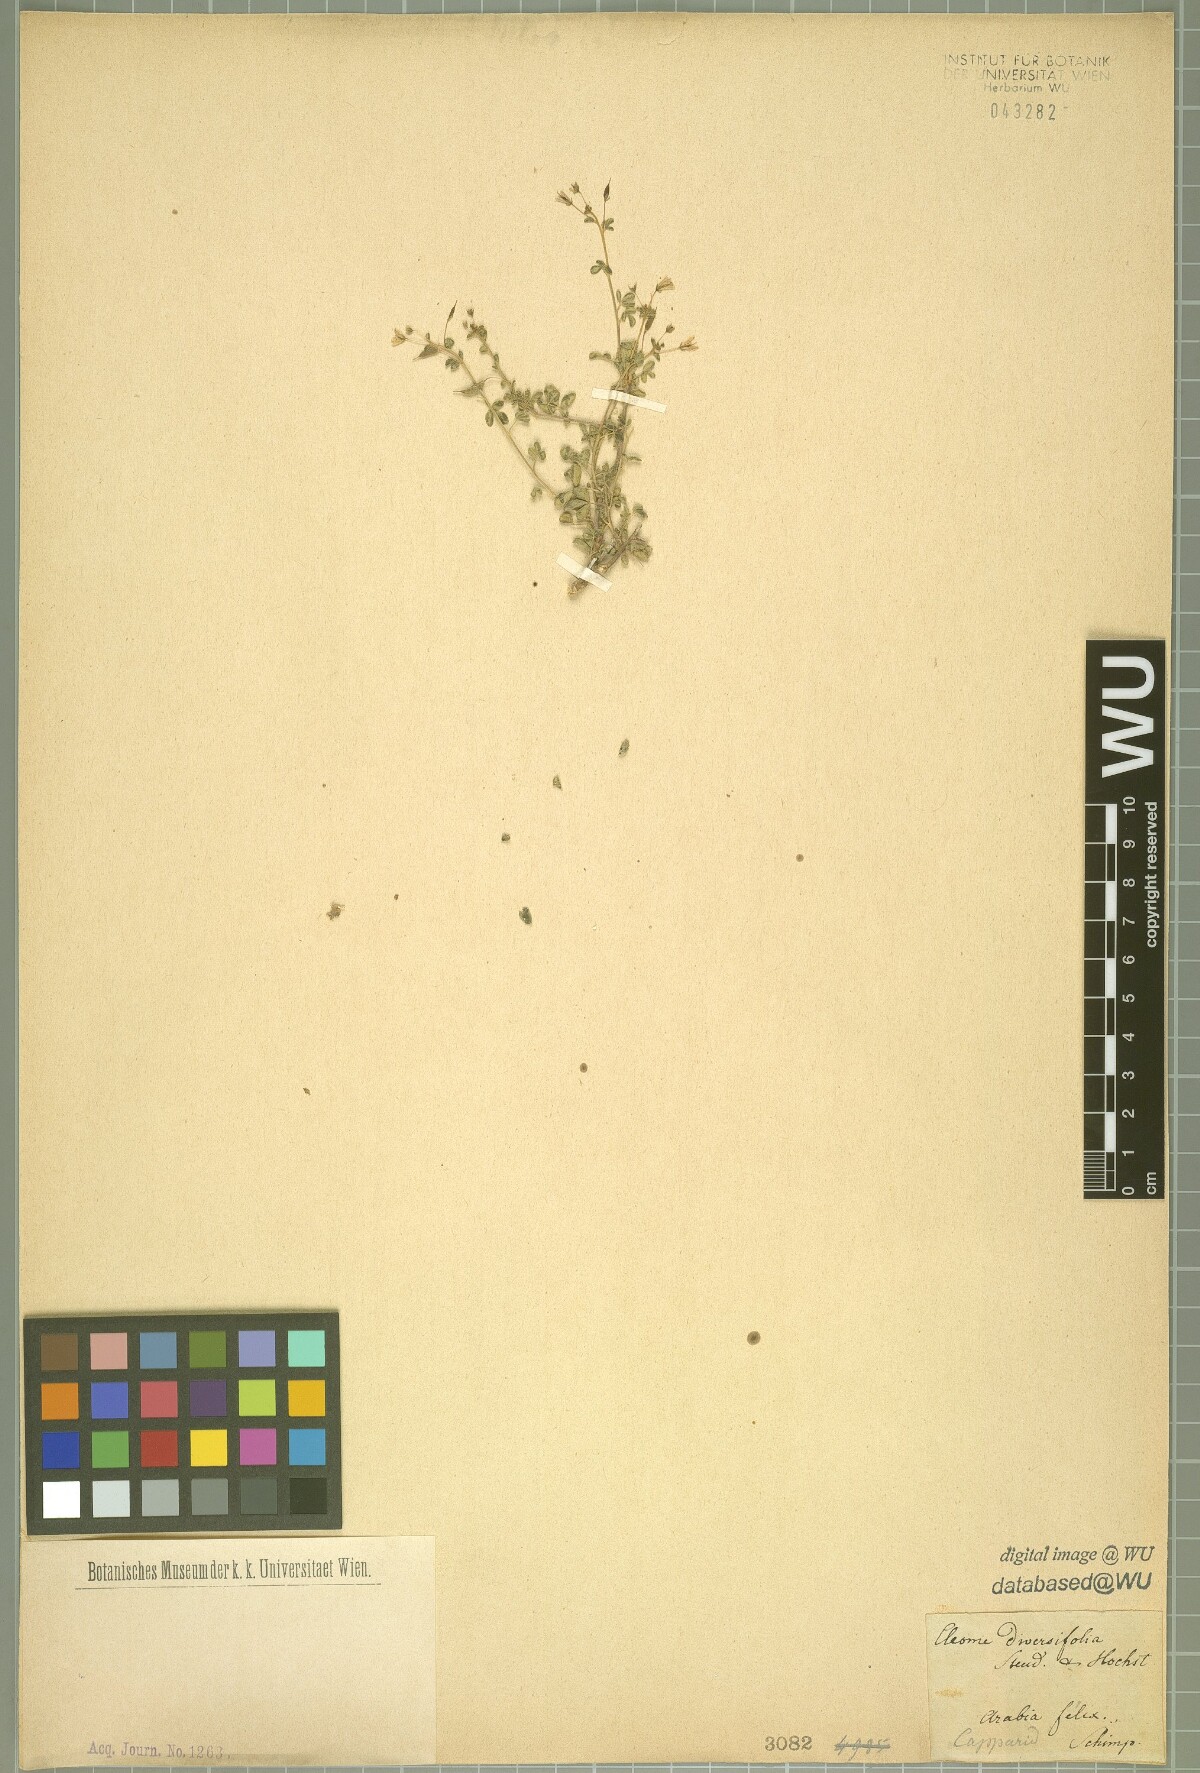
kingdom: Plantae
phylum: Tracheophyta
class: Magnoliopsida
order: Brassicales
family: Cleomaceae
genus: Stylidocleome
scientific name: Stylidocleome brachycarpa
